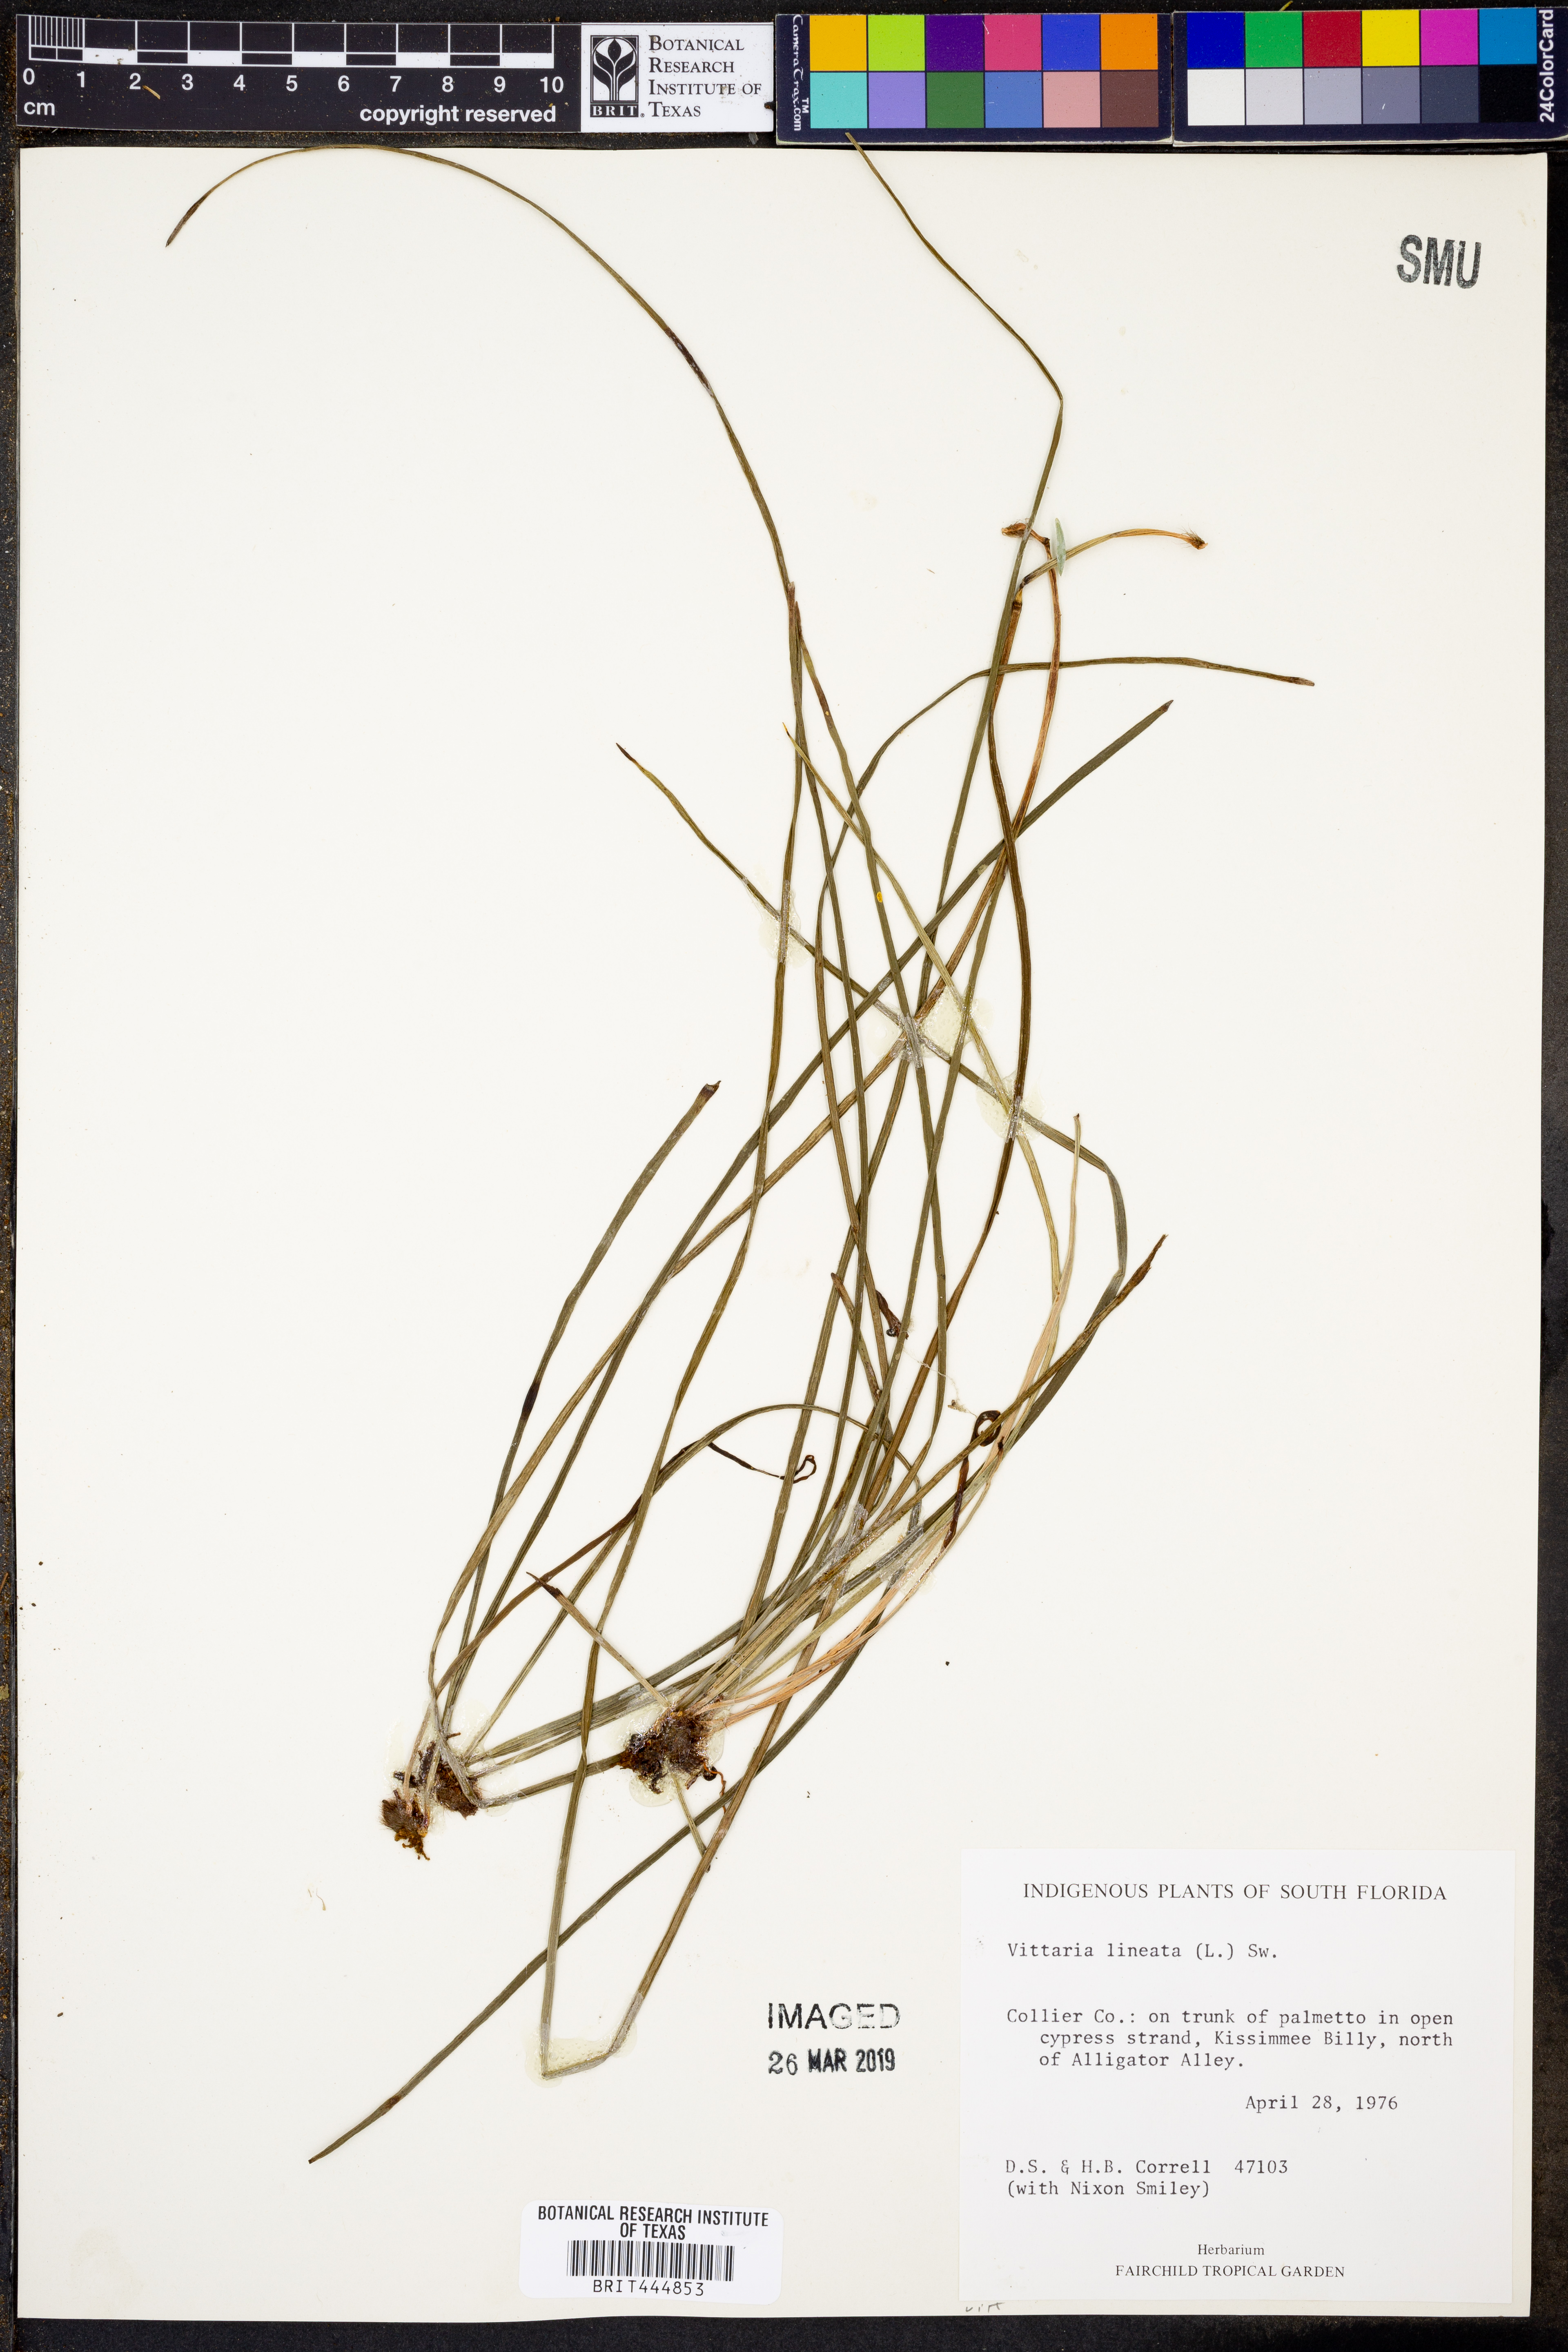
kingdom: Plantae
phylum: Tracheophyta
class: Polypodiopsida
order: Polypodiales
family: Pteridaceae
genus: Vittaria
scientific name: Vittaria lineata
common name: Shoestring fern
